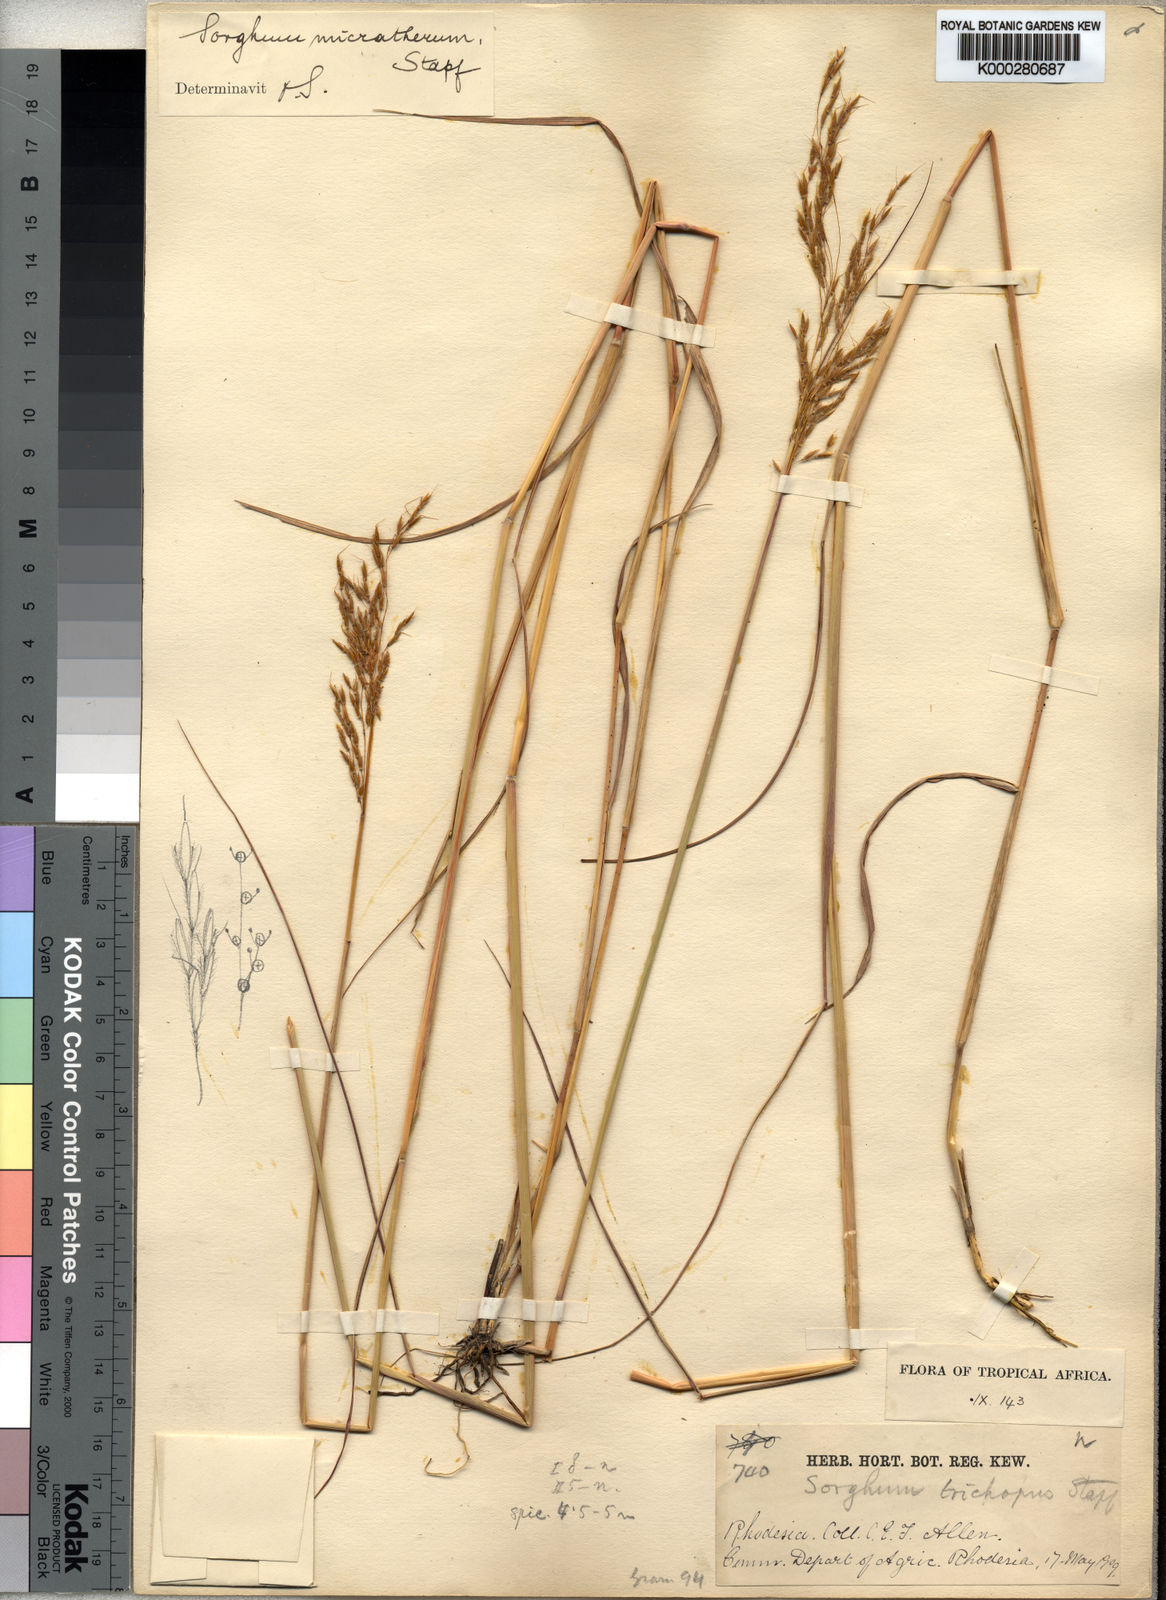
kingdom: Plantae
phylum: Tracheophyta
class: Liliopsida
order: Poales
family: Poaceae
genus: Sorghastrum
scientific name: Sorghastrum nudipes
